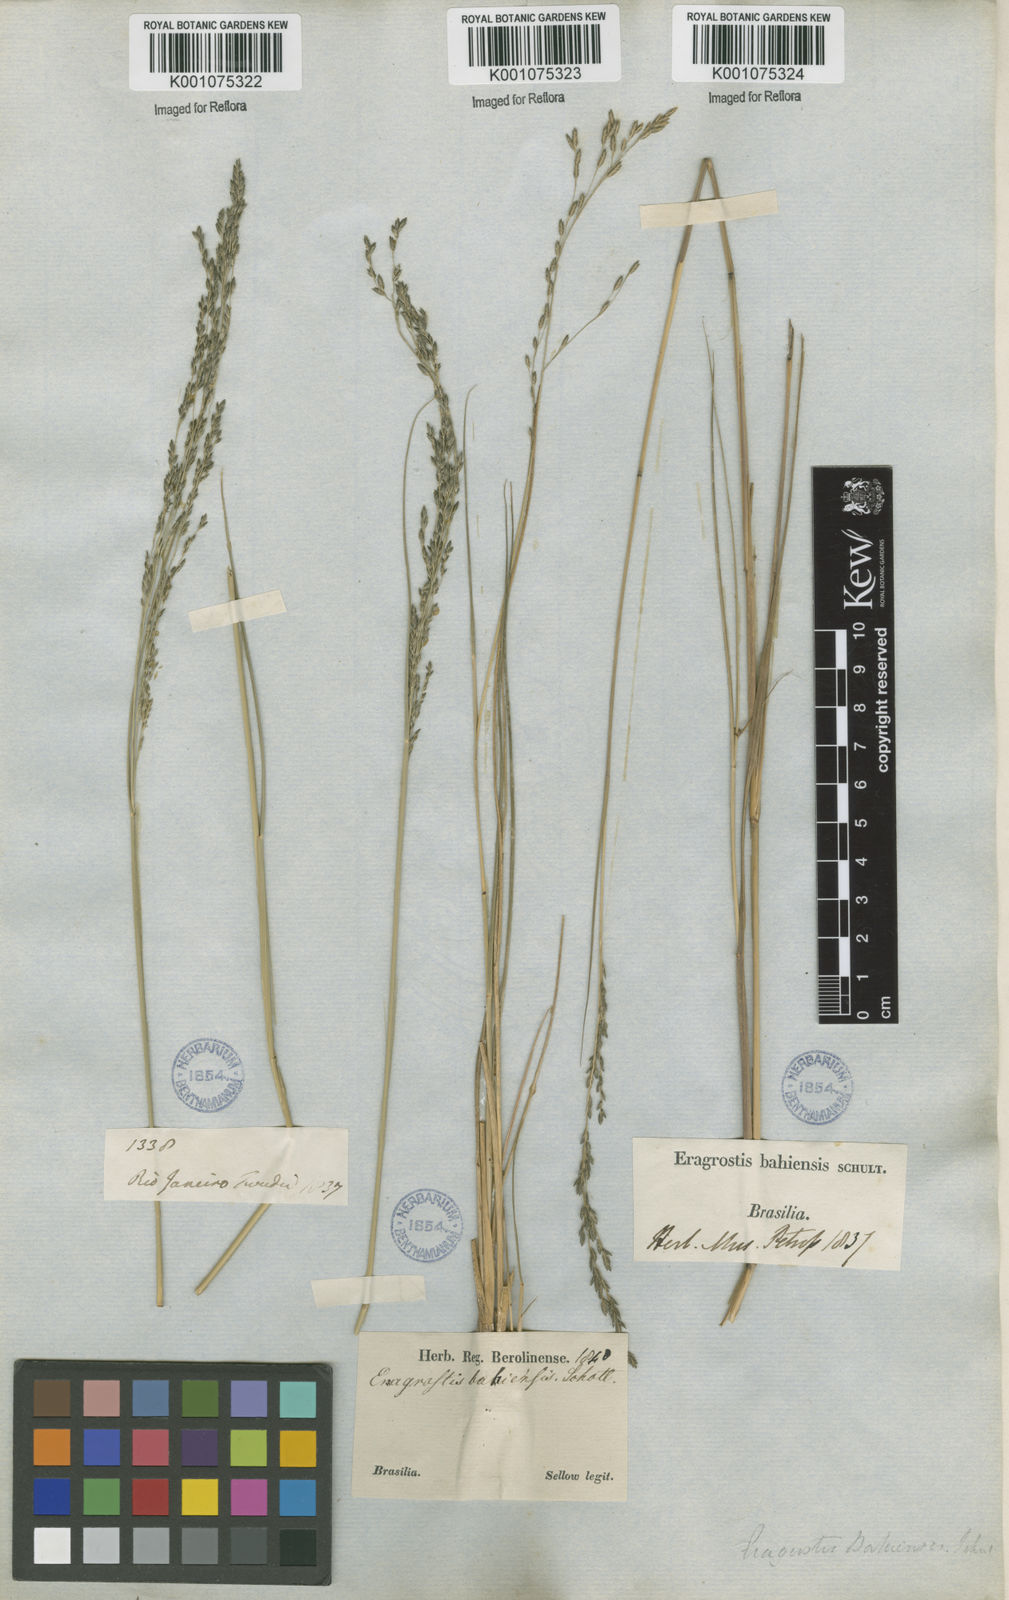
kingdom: Plantae
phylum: Tracheophyta
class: Liliopsida
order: Poales
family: Poaceae
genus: Eragrostis
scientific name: Eragrostis bahiensis
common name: Bahia lovegrass
